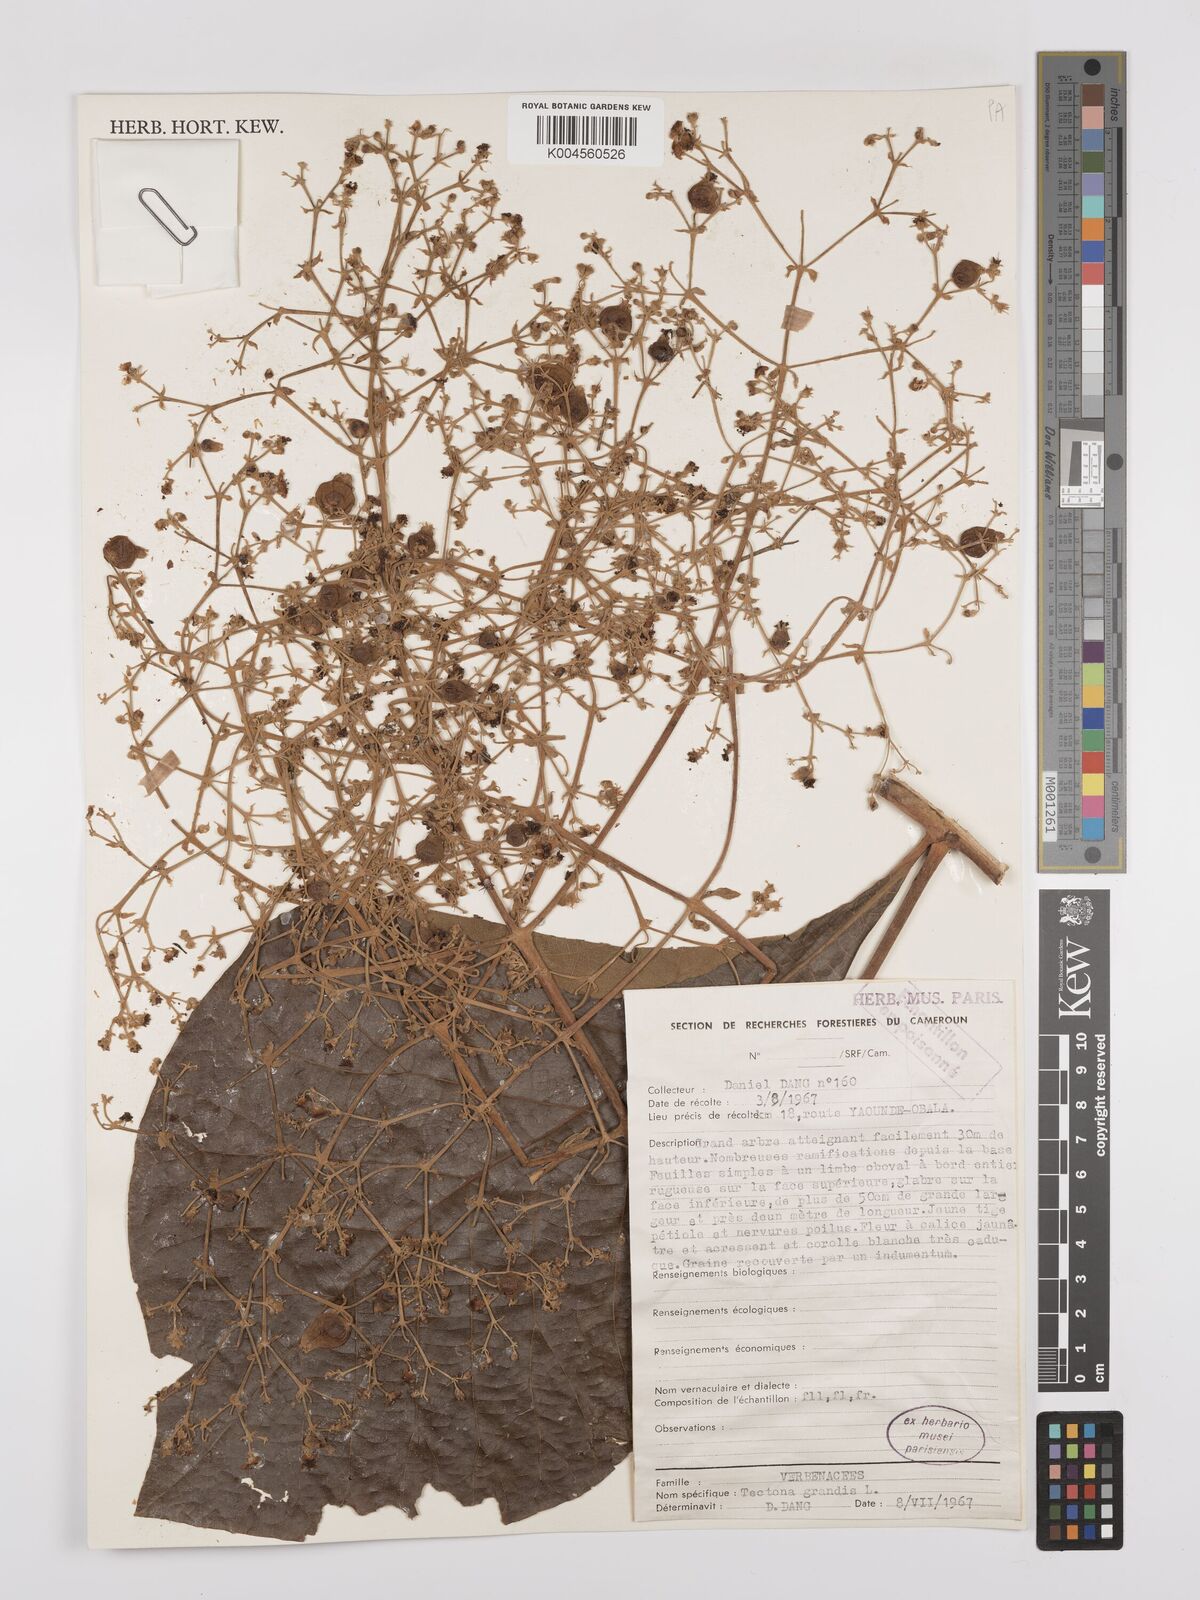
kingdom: Plantae
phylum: Tracheophyta
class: Magnoliopsida
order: Lamiales
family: Lamiaceae
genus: Tectona
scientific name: Tectona grandis
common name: Teak
